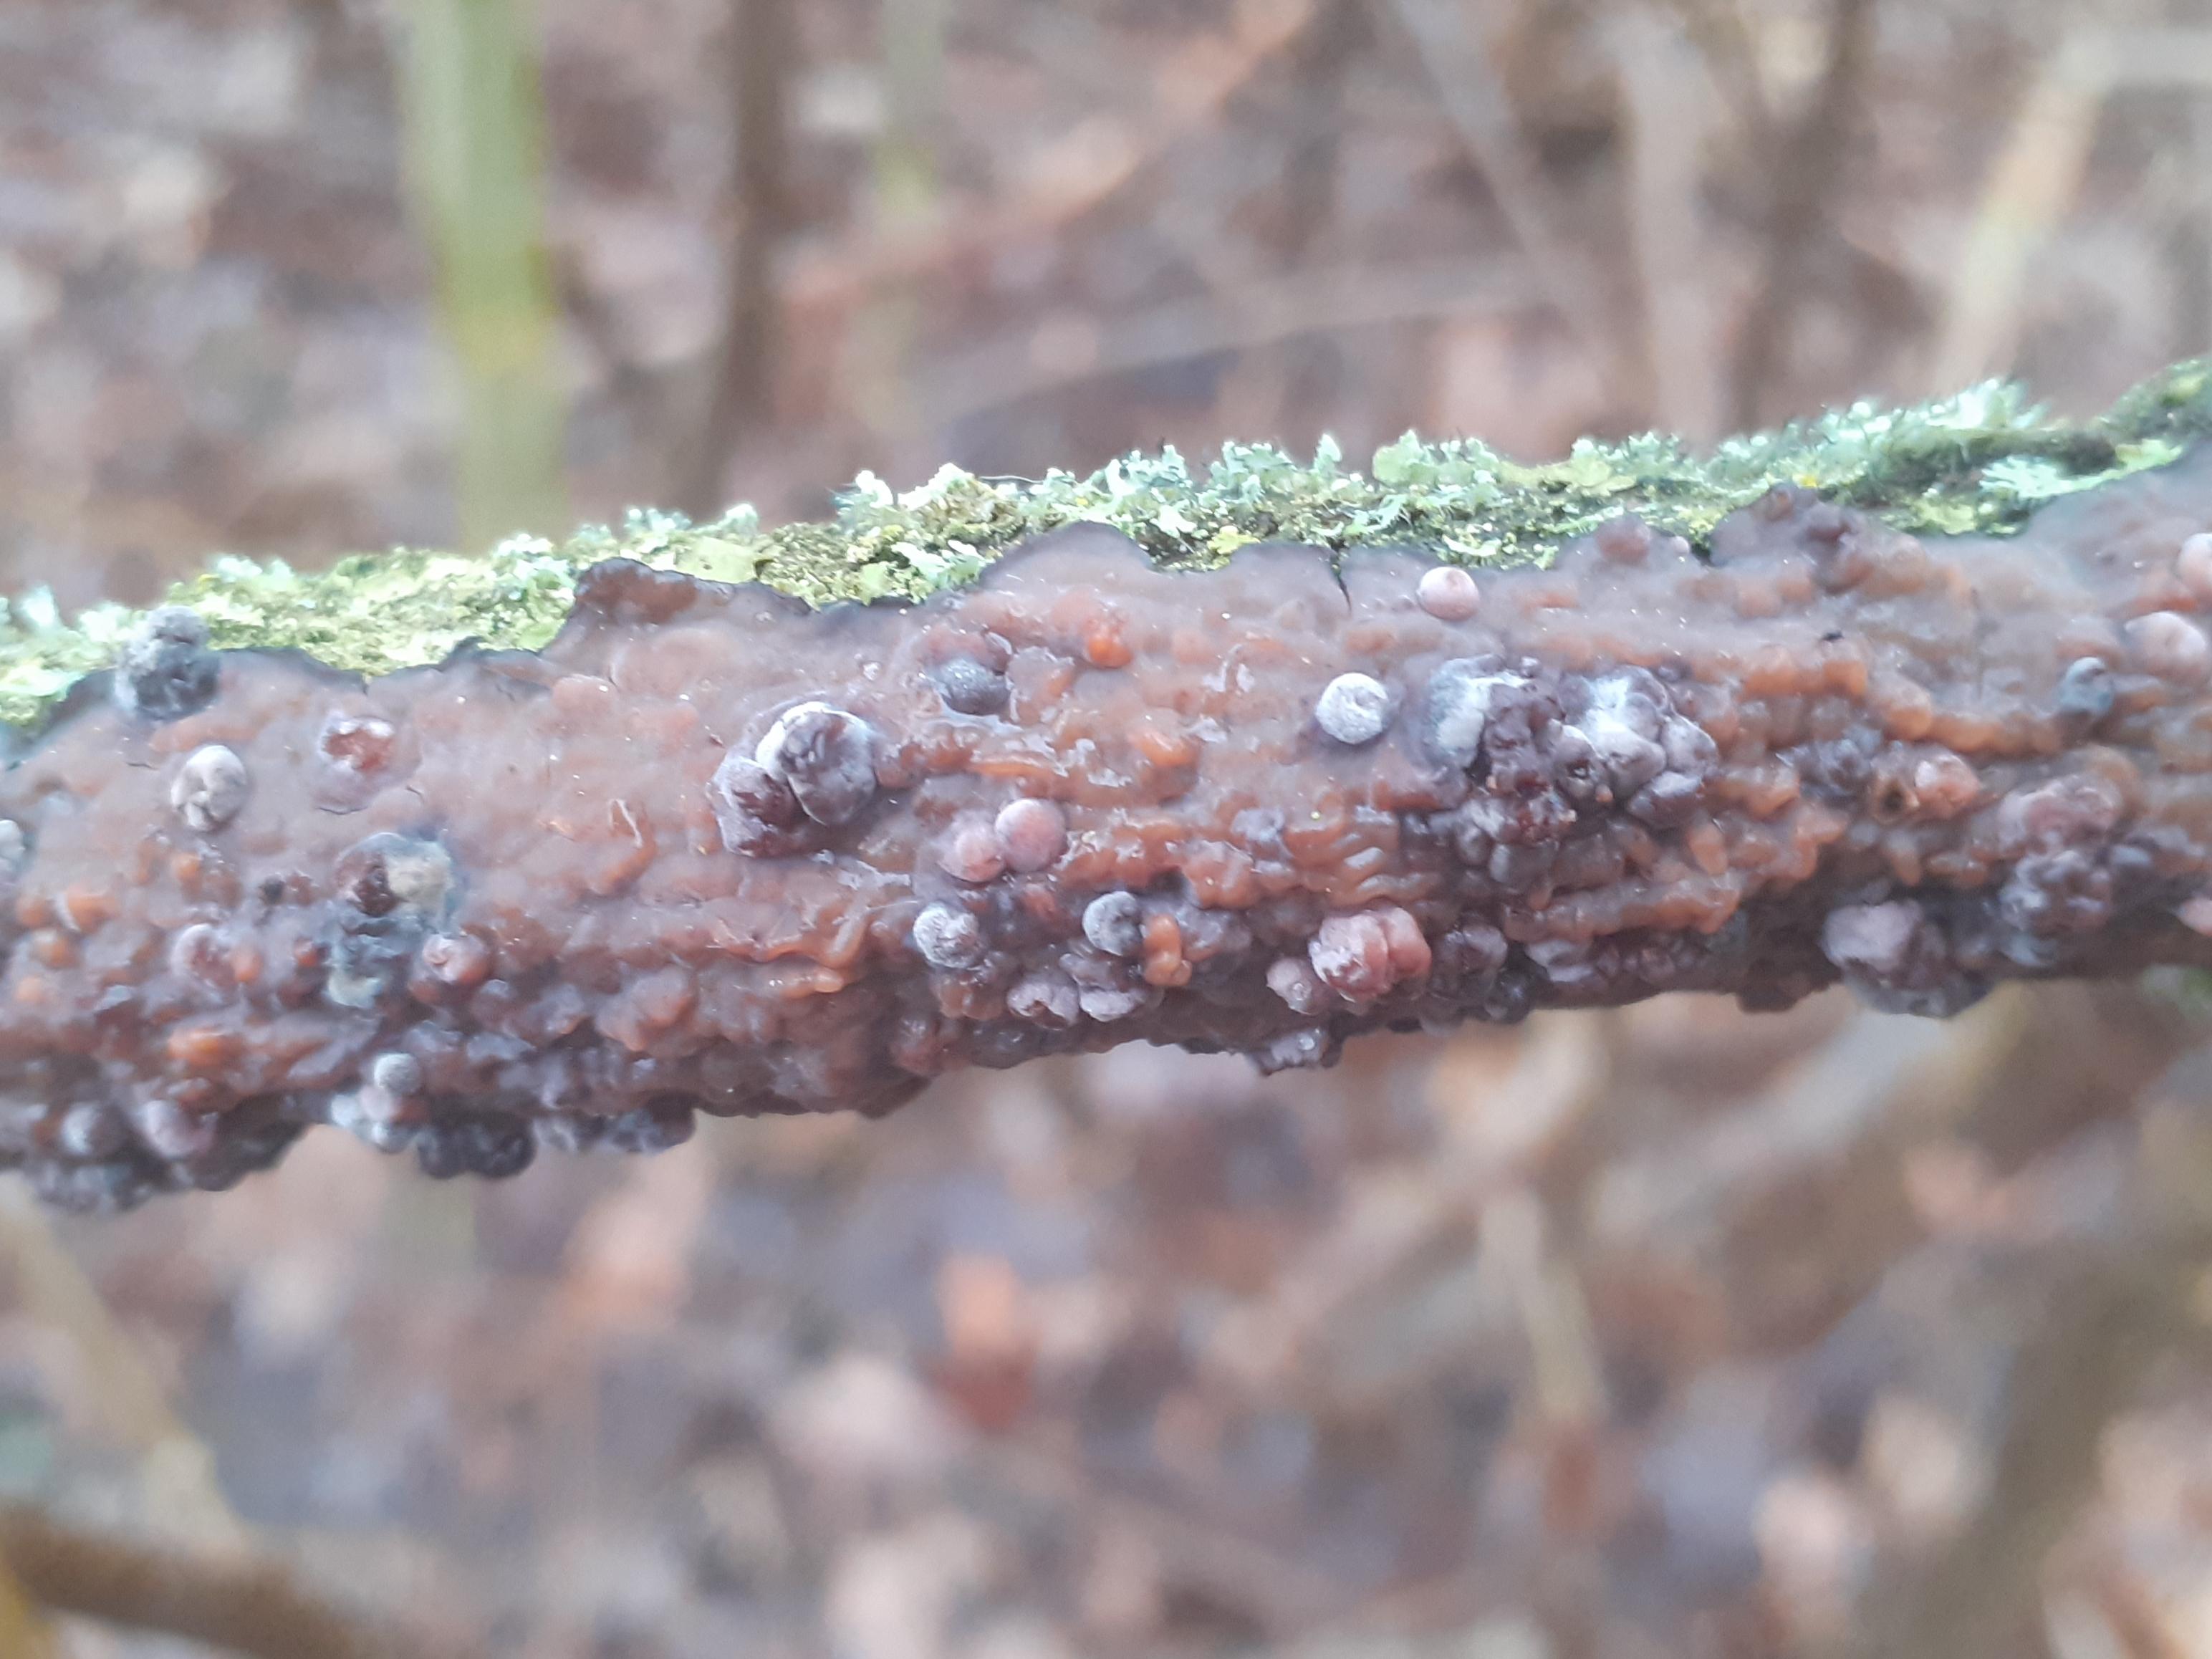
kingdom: Fungi
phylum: Basidiomycota
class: Pucciniomycetes
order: Platygloeales
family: Platygloeaceae
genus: Platygloea
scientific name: Platygloea
